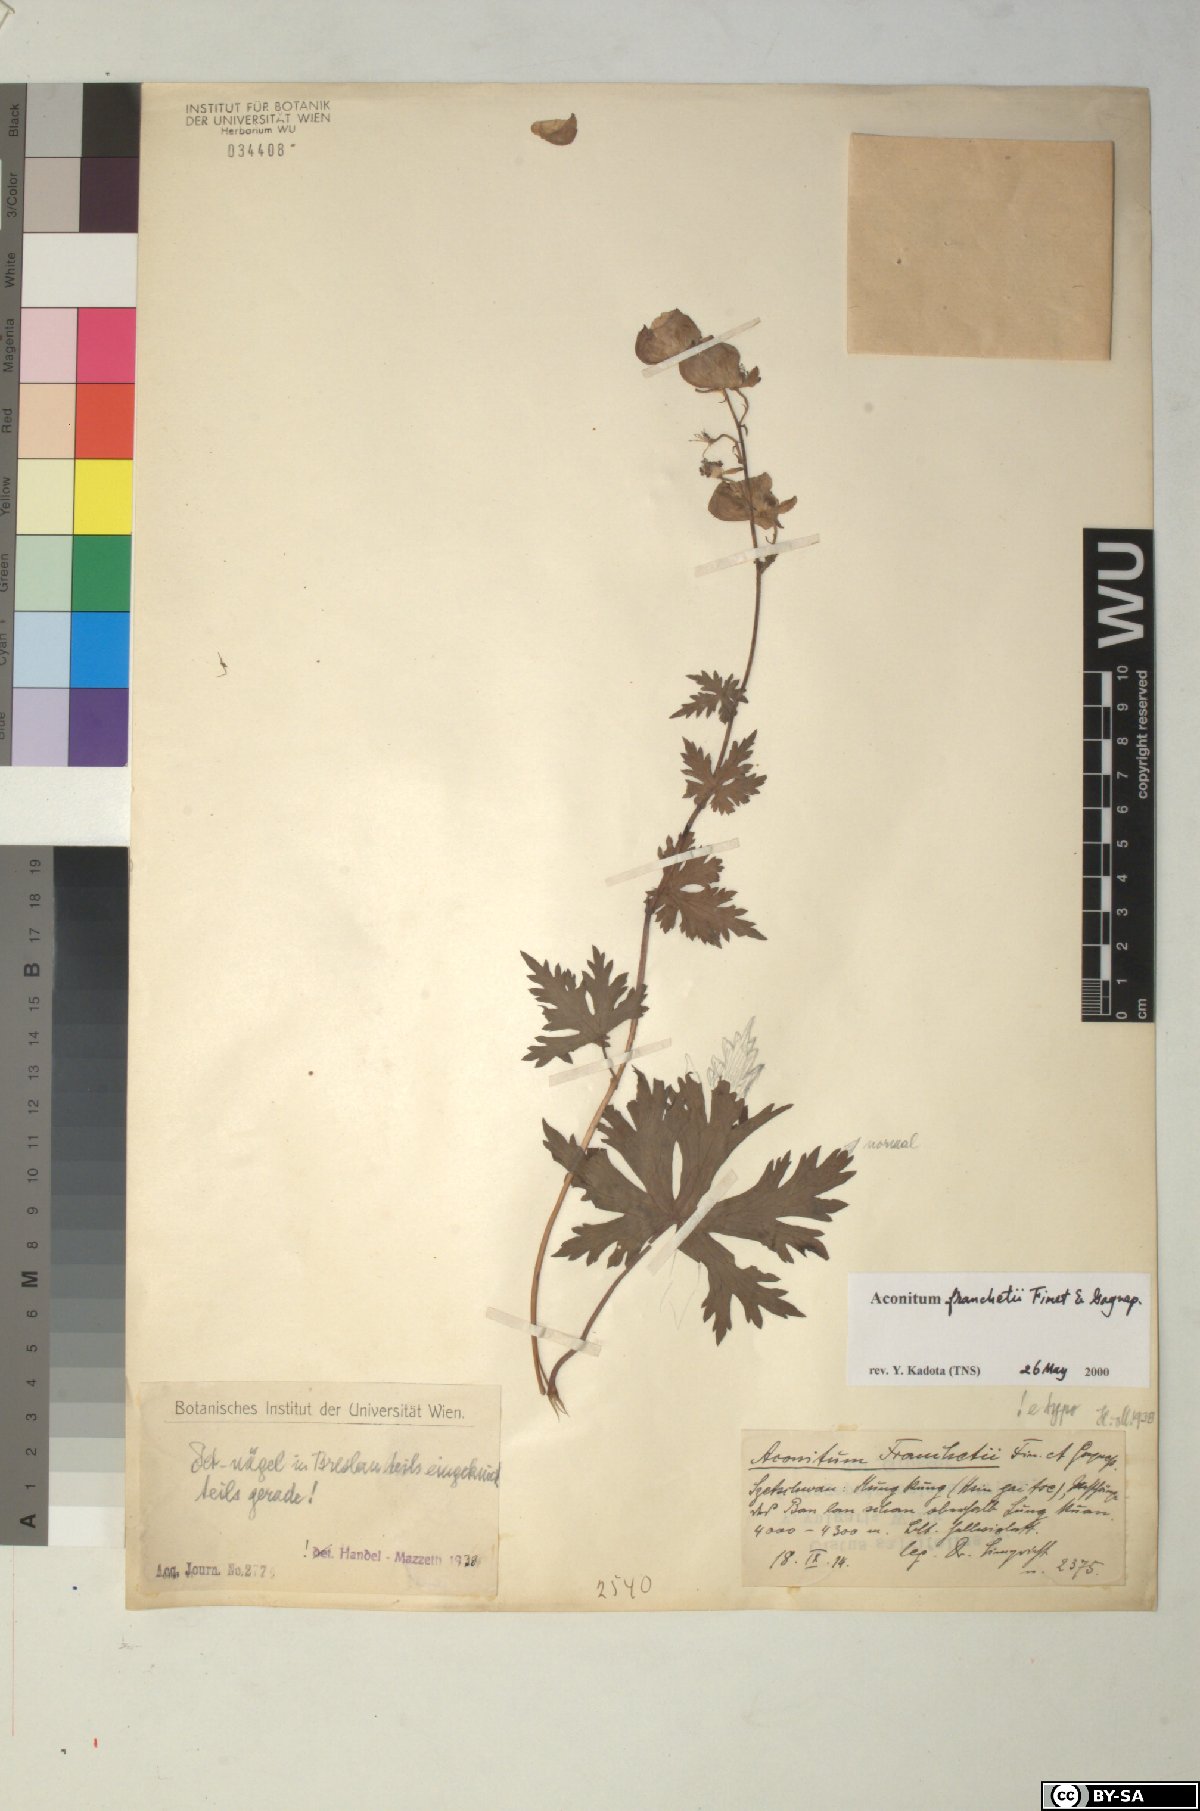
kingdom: Plantae
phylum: Tracheophyta
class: Magnoliopsida
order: Ranunculales
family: Ranunculaceae
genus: Aconitum
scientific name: Aconitum franchetii
